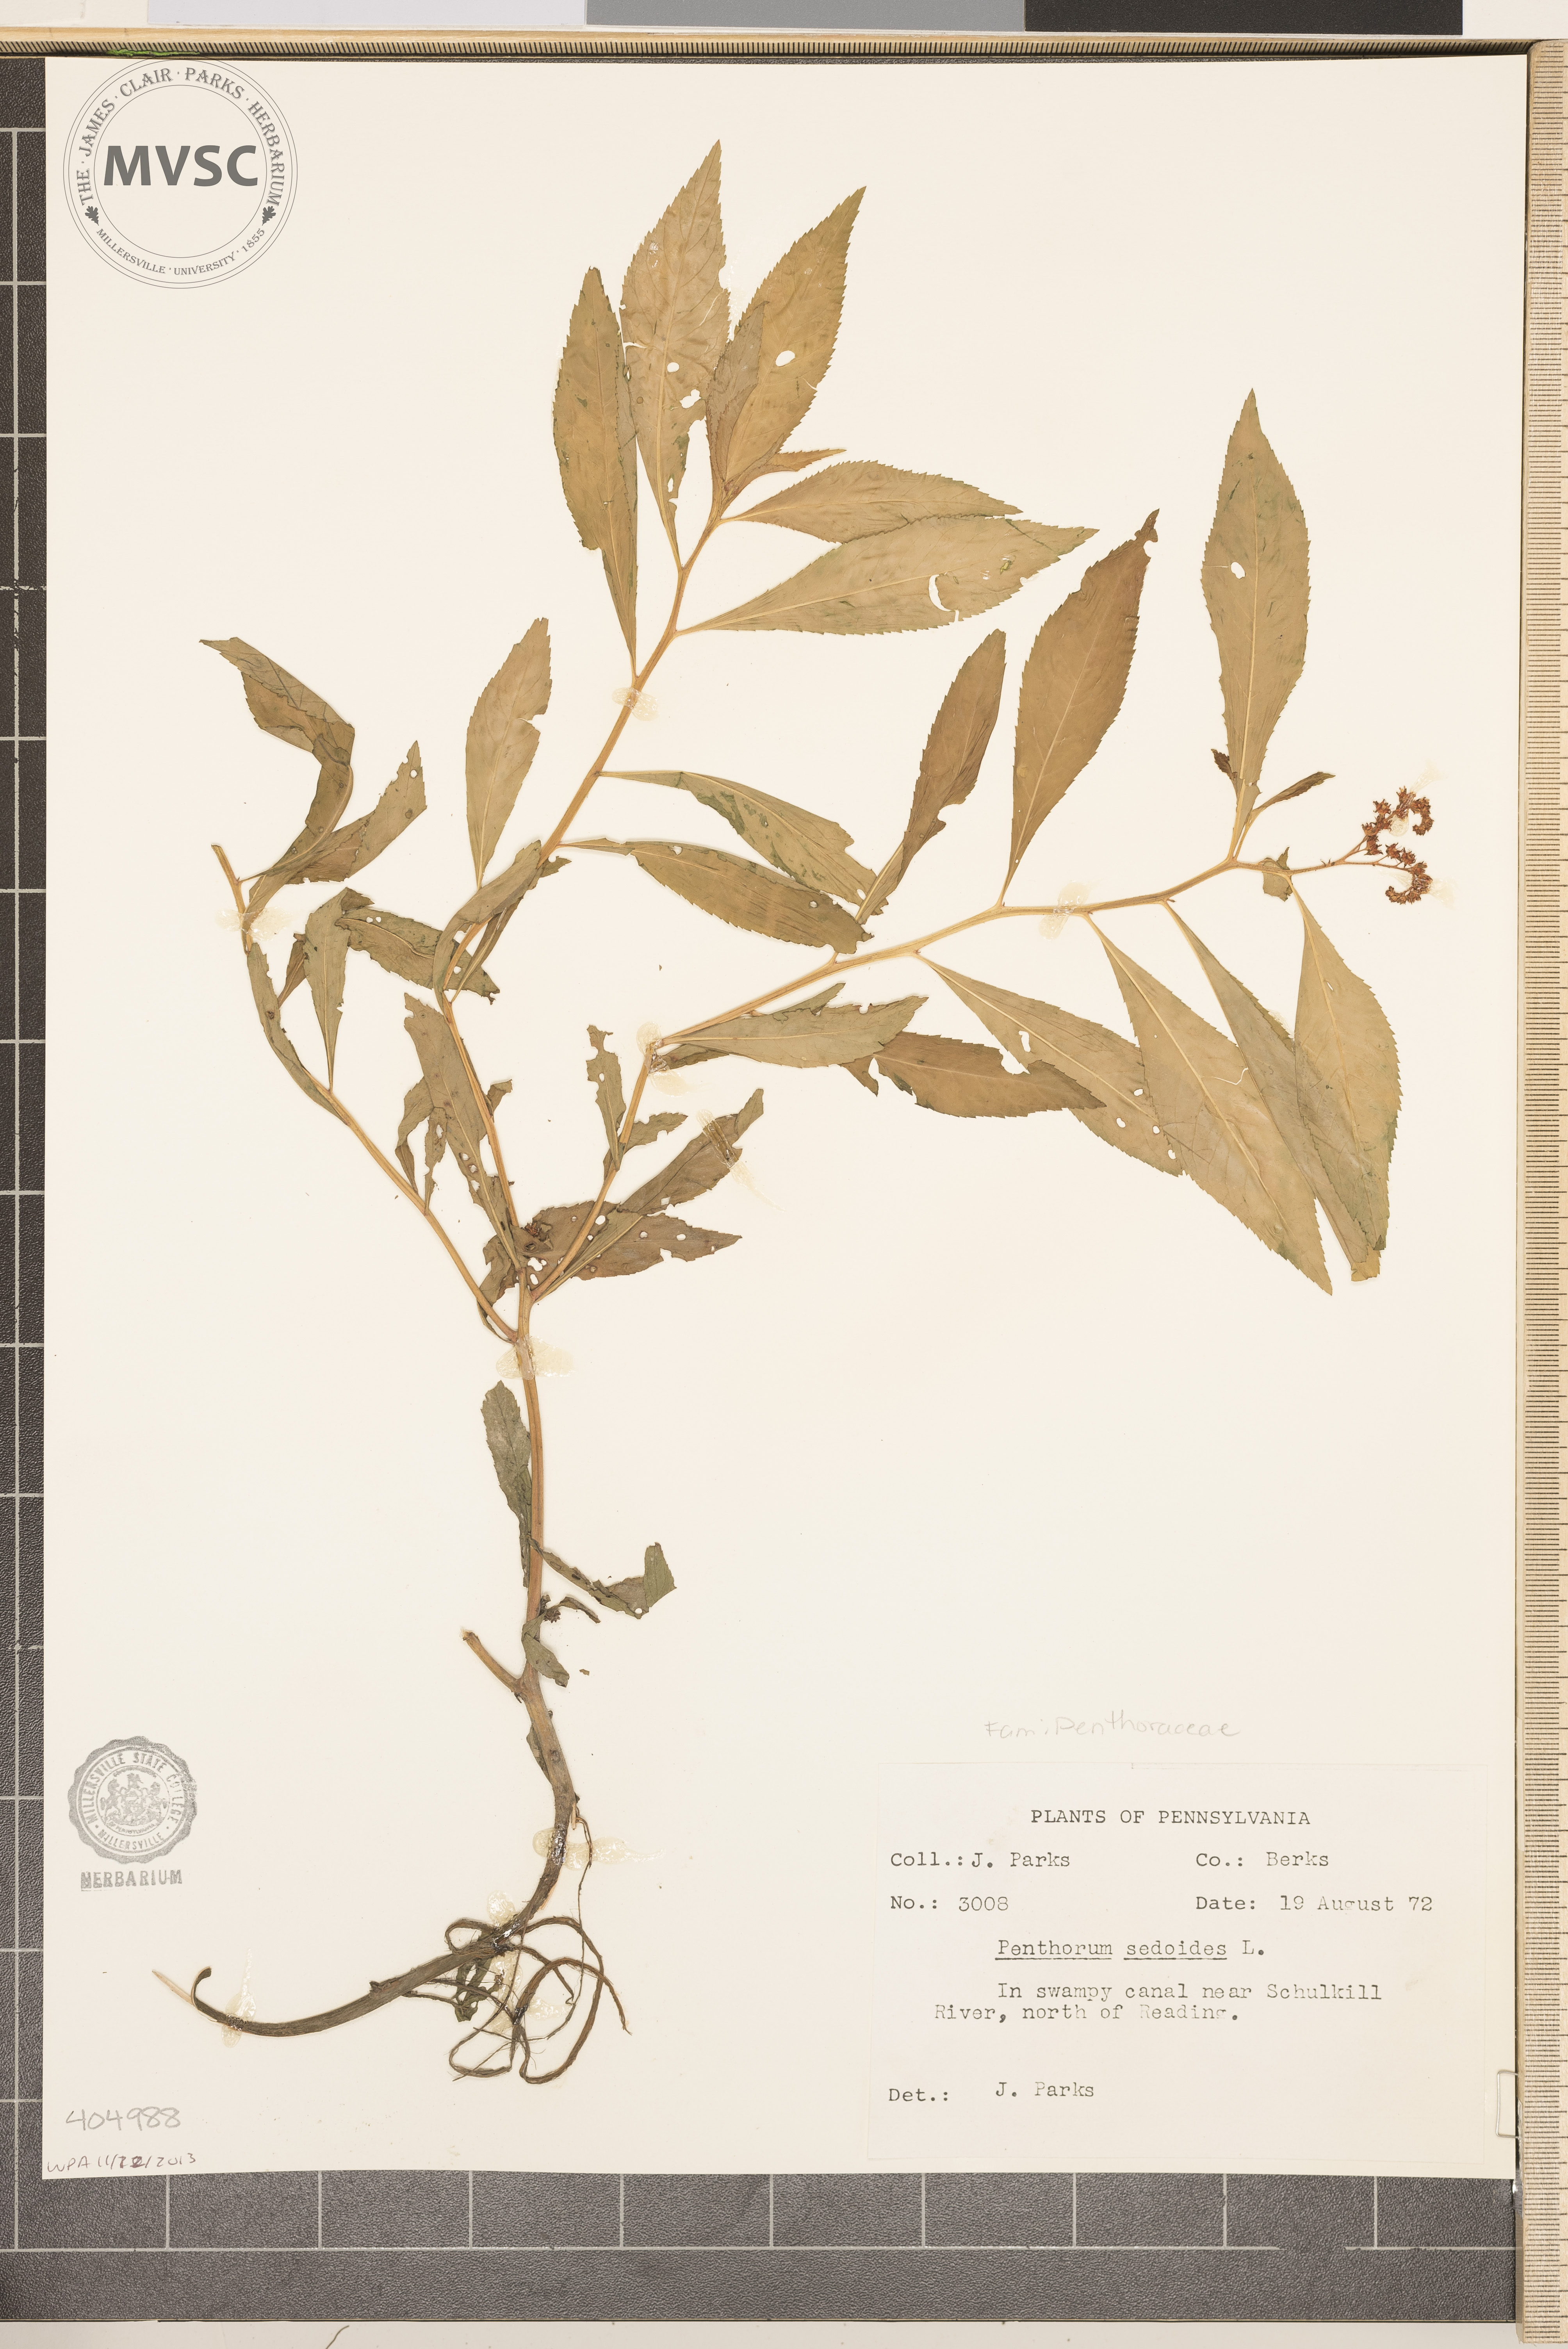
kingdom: Plantae
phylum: Tracheophyta
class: Magnoliopsida
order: Saxifragales
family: Penthoraceae
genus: Penthorum
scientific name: Penthorum sedoides
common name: Ditch stonecrop
